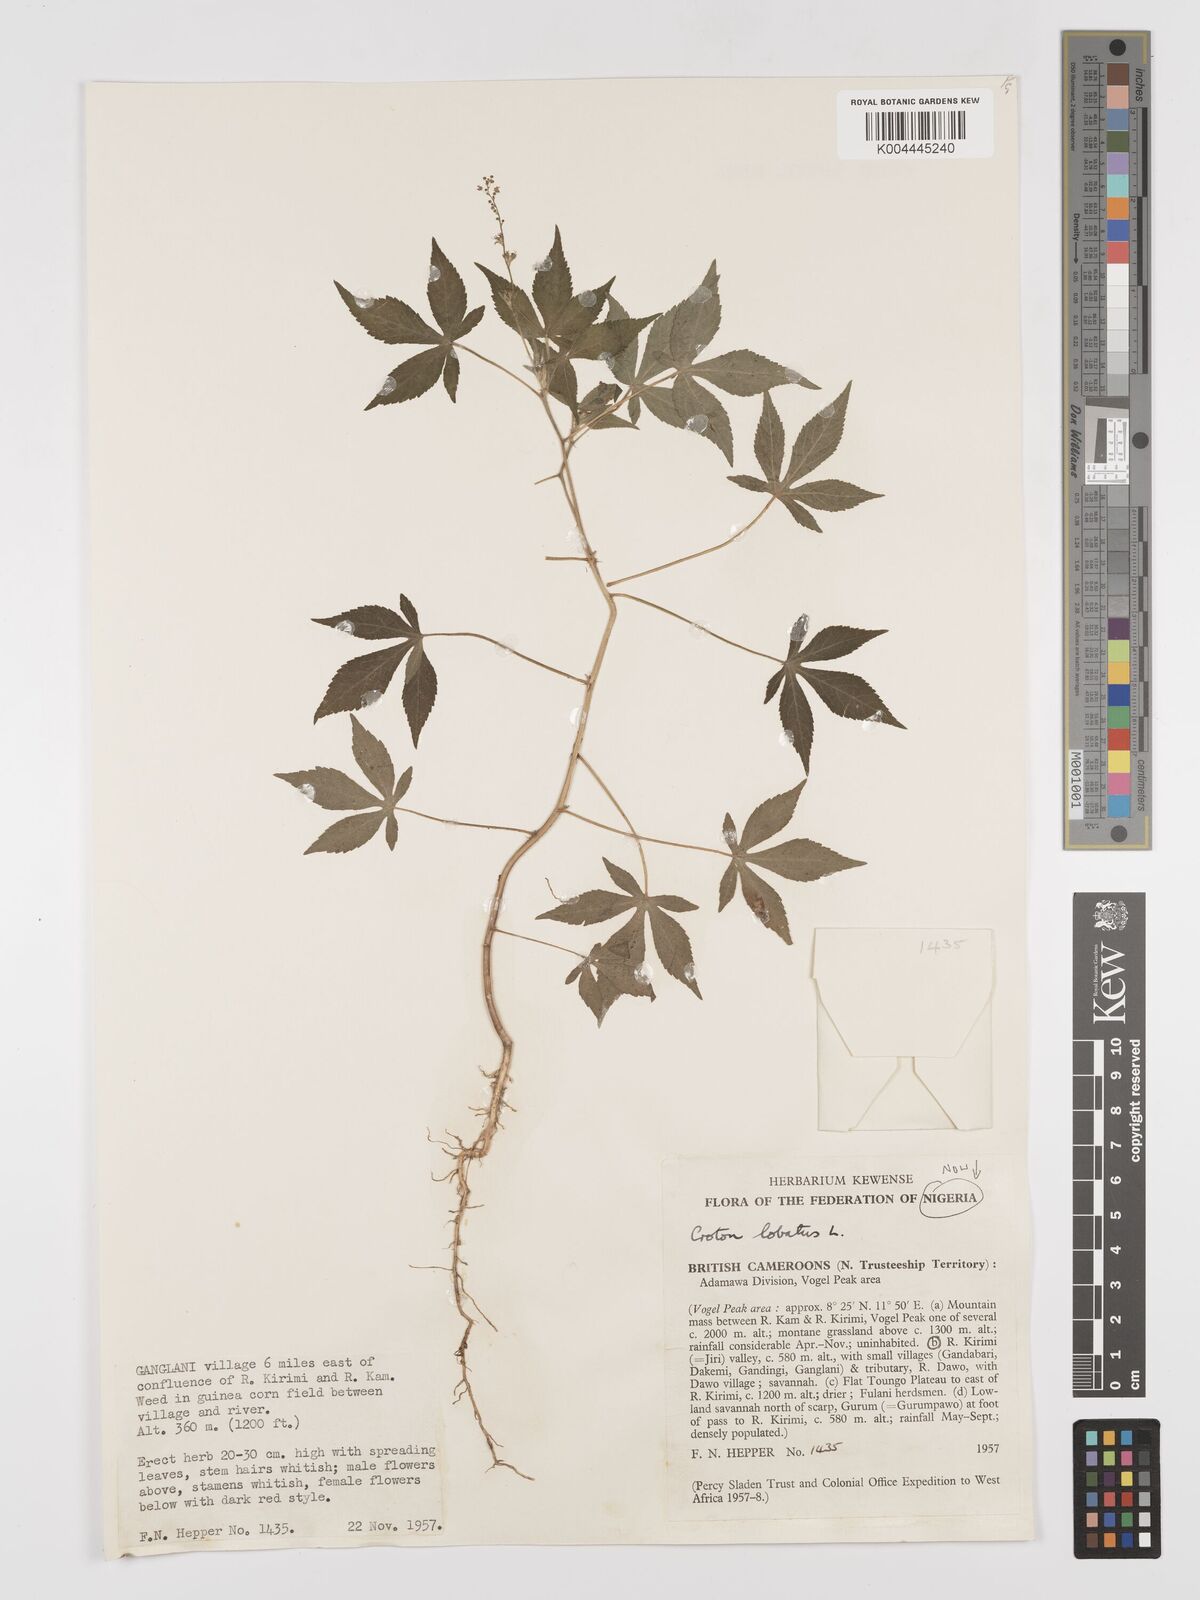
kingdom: Plantae
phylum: Tracheophyta
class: Magnoliopsida
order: Malpighiales
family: Euphorbiaceae
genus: Astraea
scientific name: Astraea lobata
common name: Lobed croton
